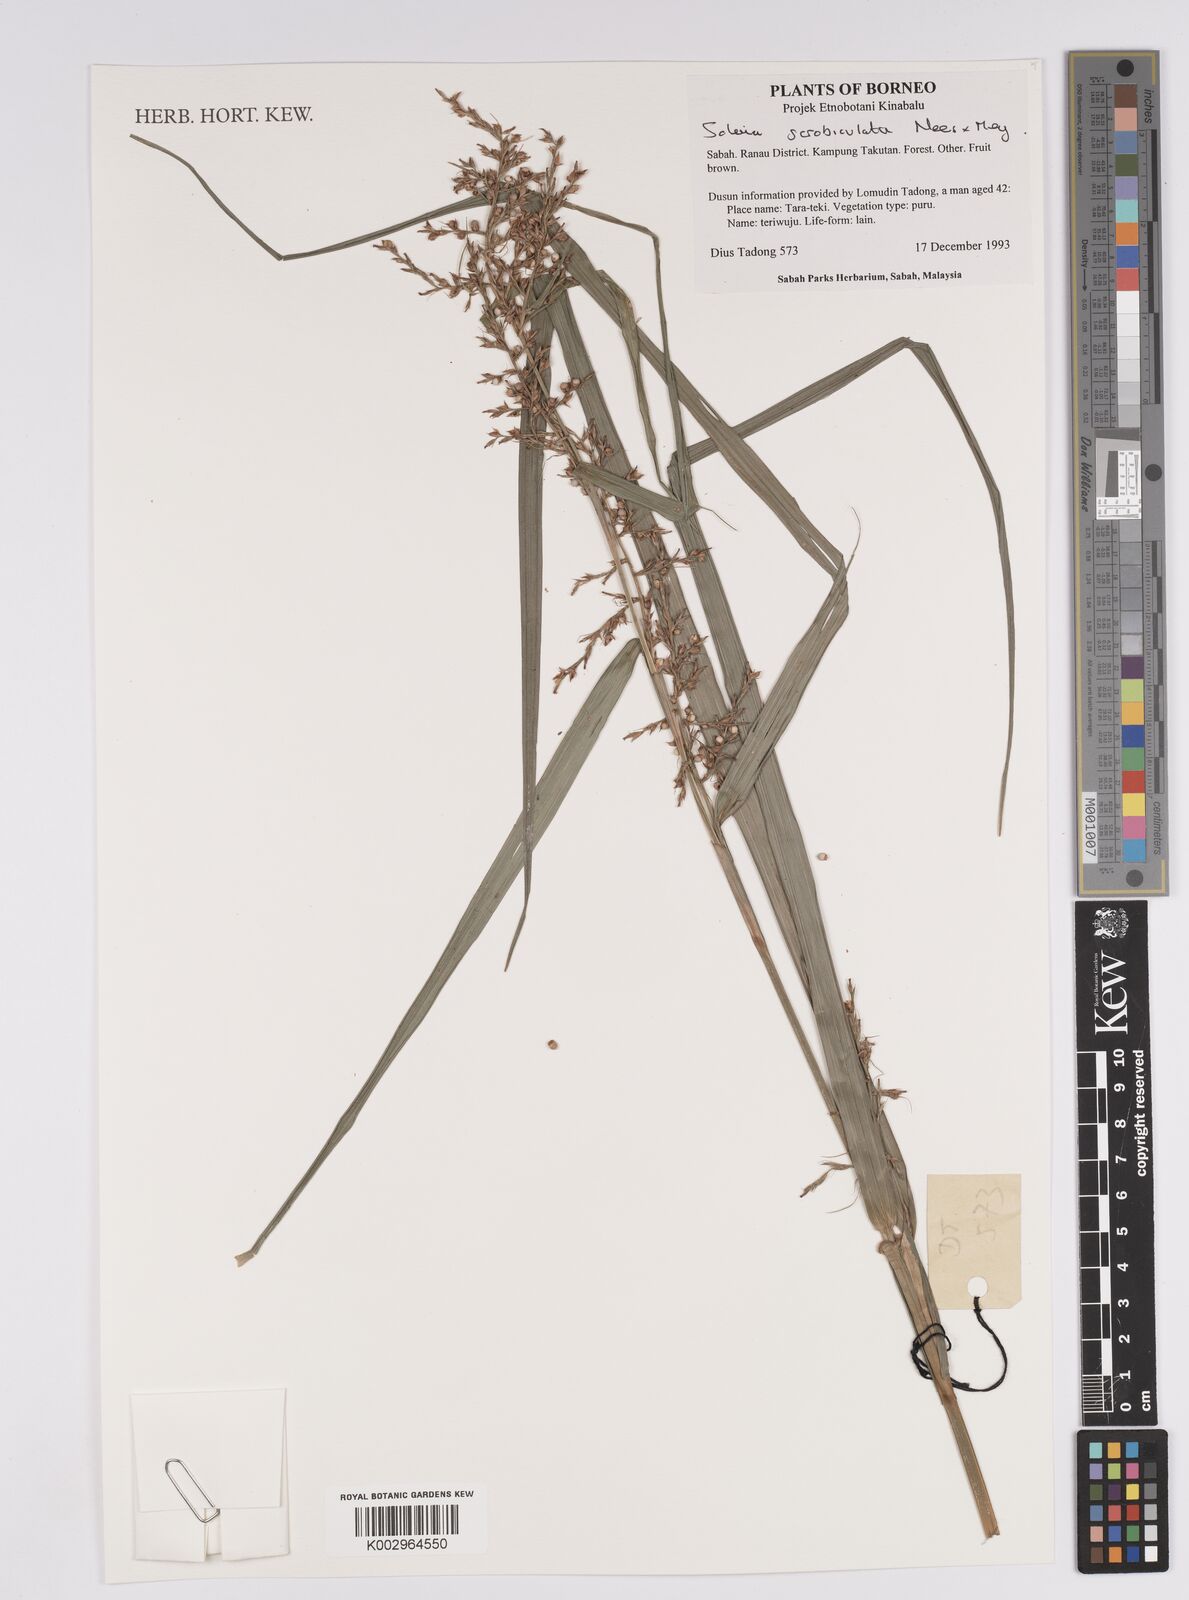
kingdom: Plantae
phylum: Tracheophyta
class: Liliopsida
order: Poales
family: Cyperaceae
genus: Scleria
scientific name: Scleria scrobiculata
